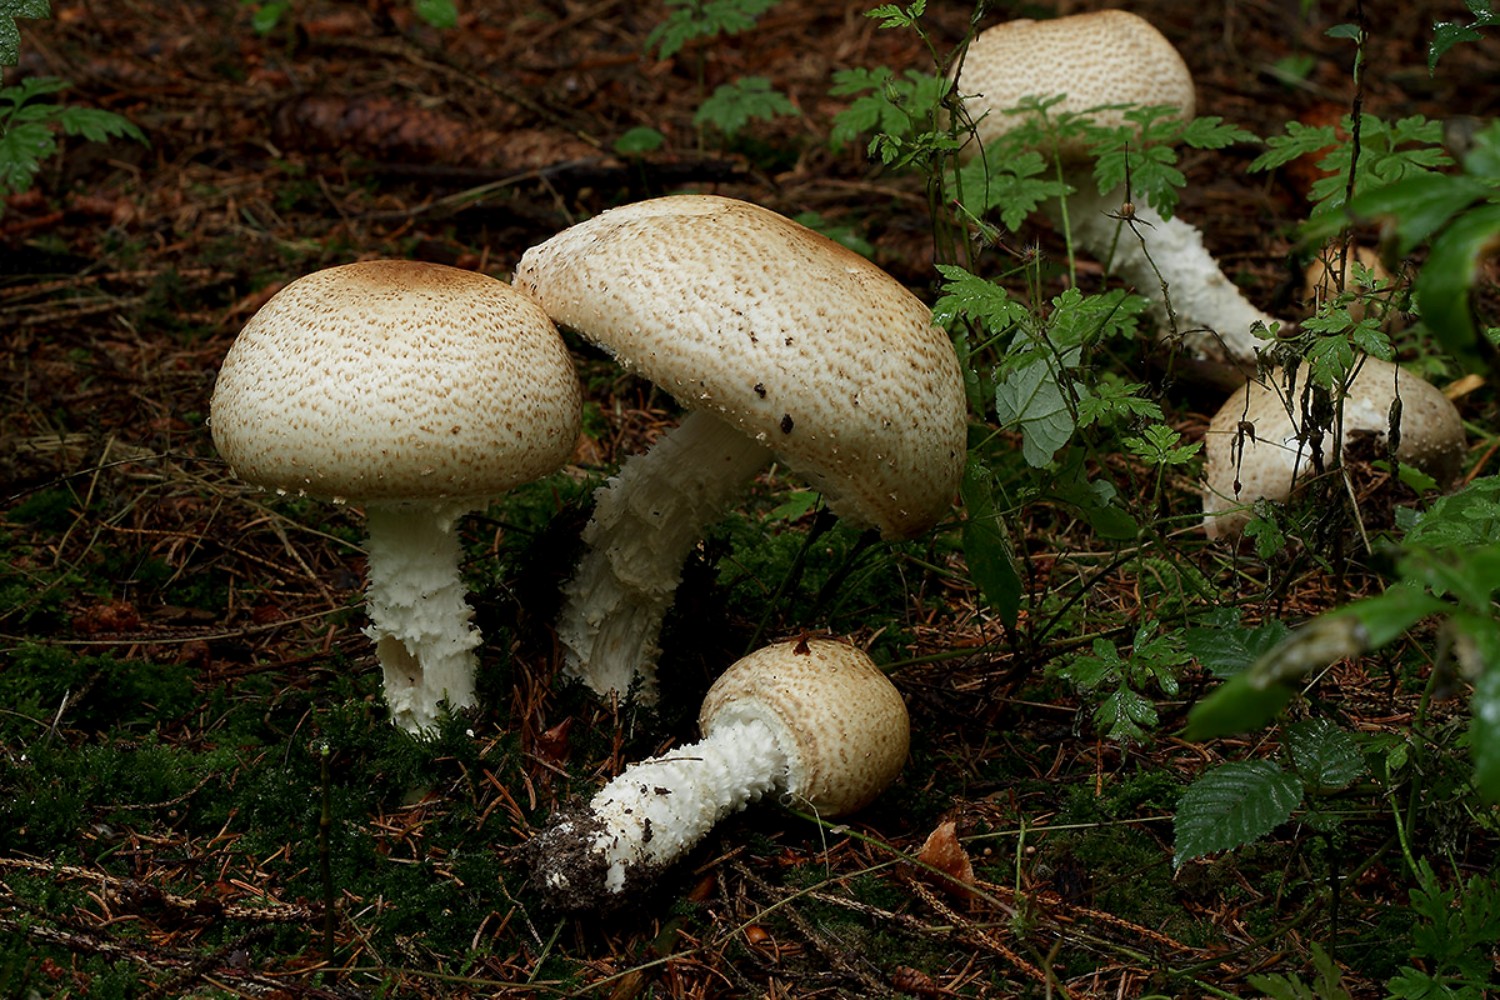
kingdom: Fungi
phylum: Basidiomycota
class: Agaricomycetes
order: Agaricales
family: Agaricaceae
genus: Agaricus
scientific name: Agaricus augustus
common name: prægtig champignon
